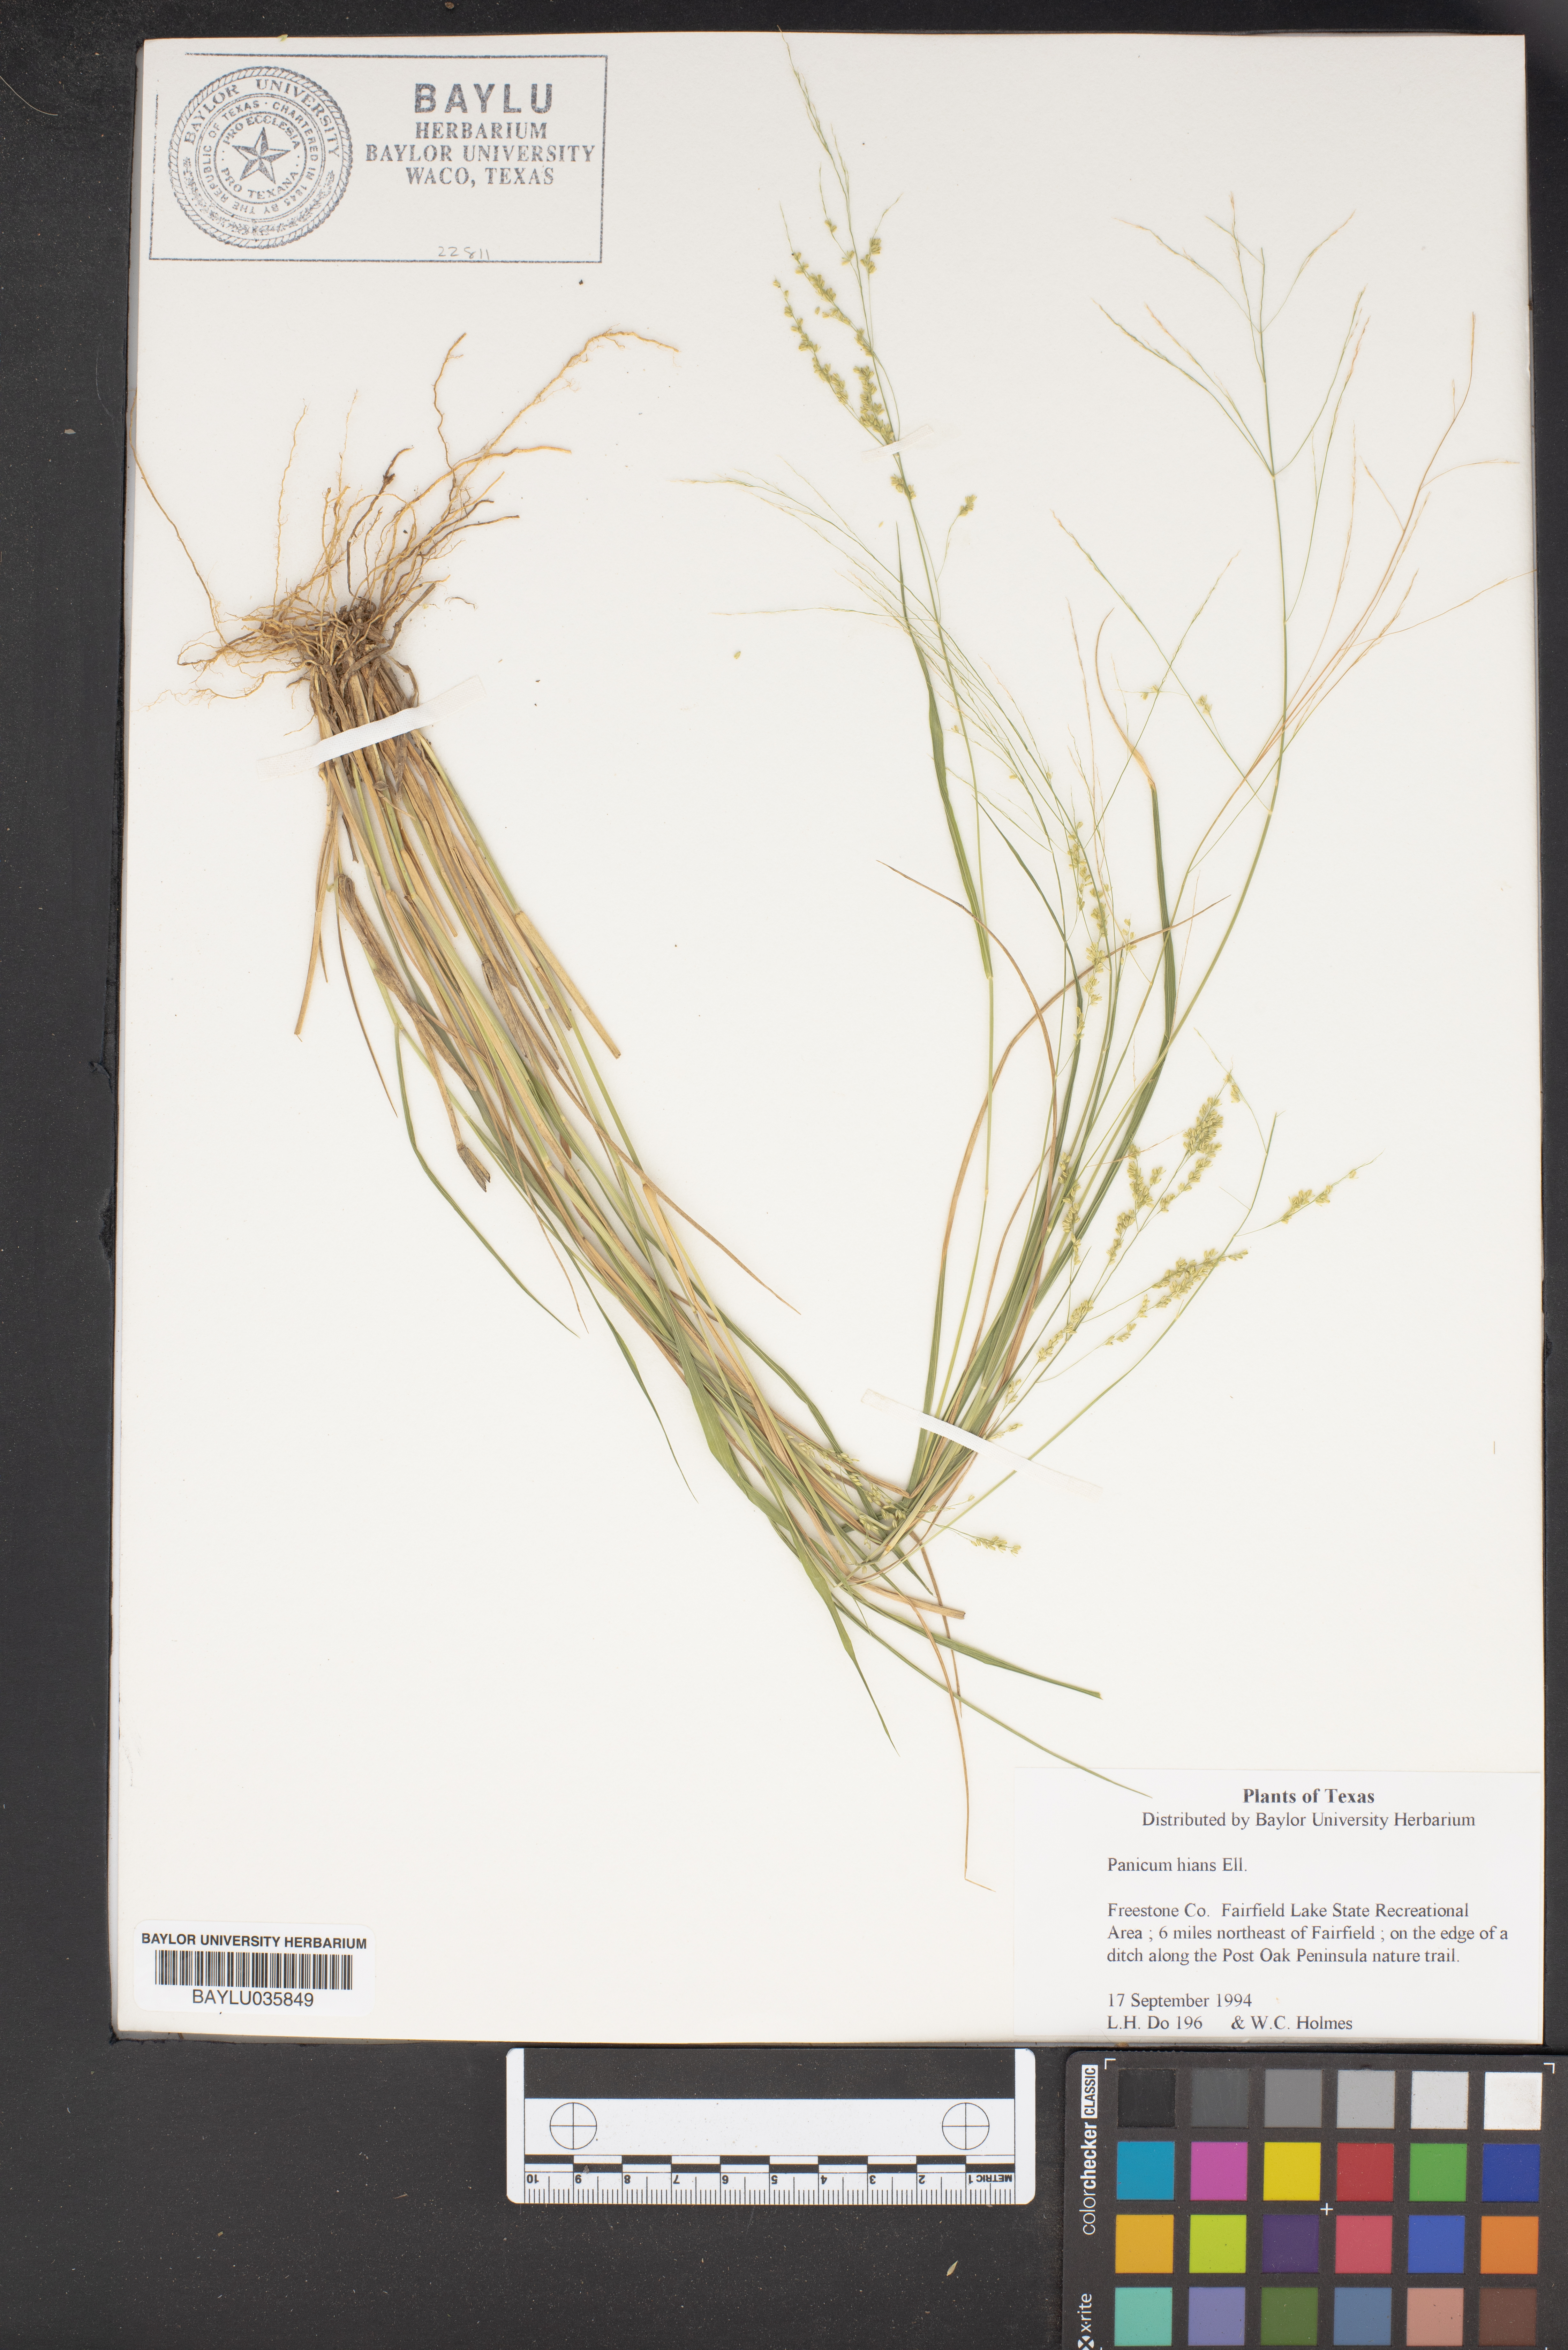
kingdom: Plantae
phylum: Tracheophyta
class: Liliopsida
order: Poales
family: Poaceae
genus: Coleataenia
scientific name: Coleataenia stenodes
